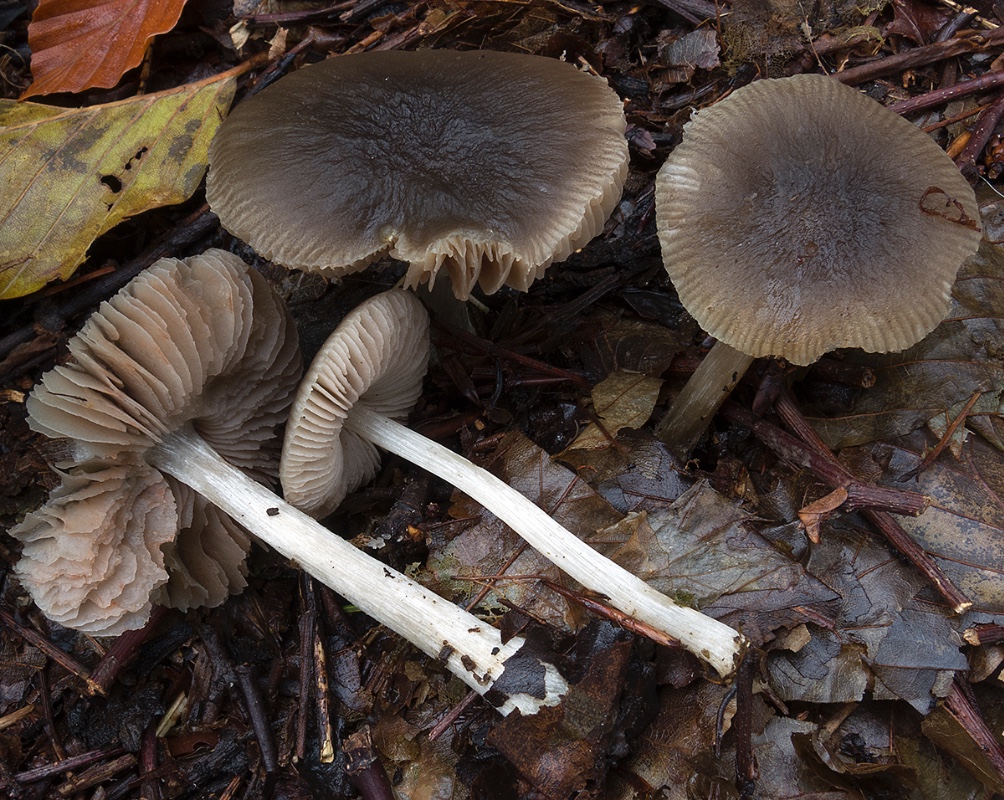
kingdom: Fungi
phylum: Basidiomycota
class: Agaricomycetes
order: Agaricales
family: Pluteaceae
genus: Pluteus
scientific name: Pluteus chrysophaeus
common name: blåfodet skærmhat
